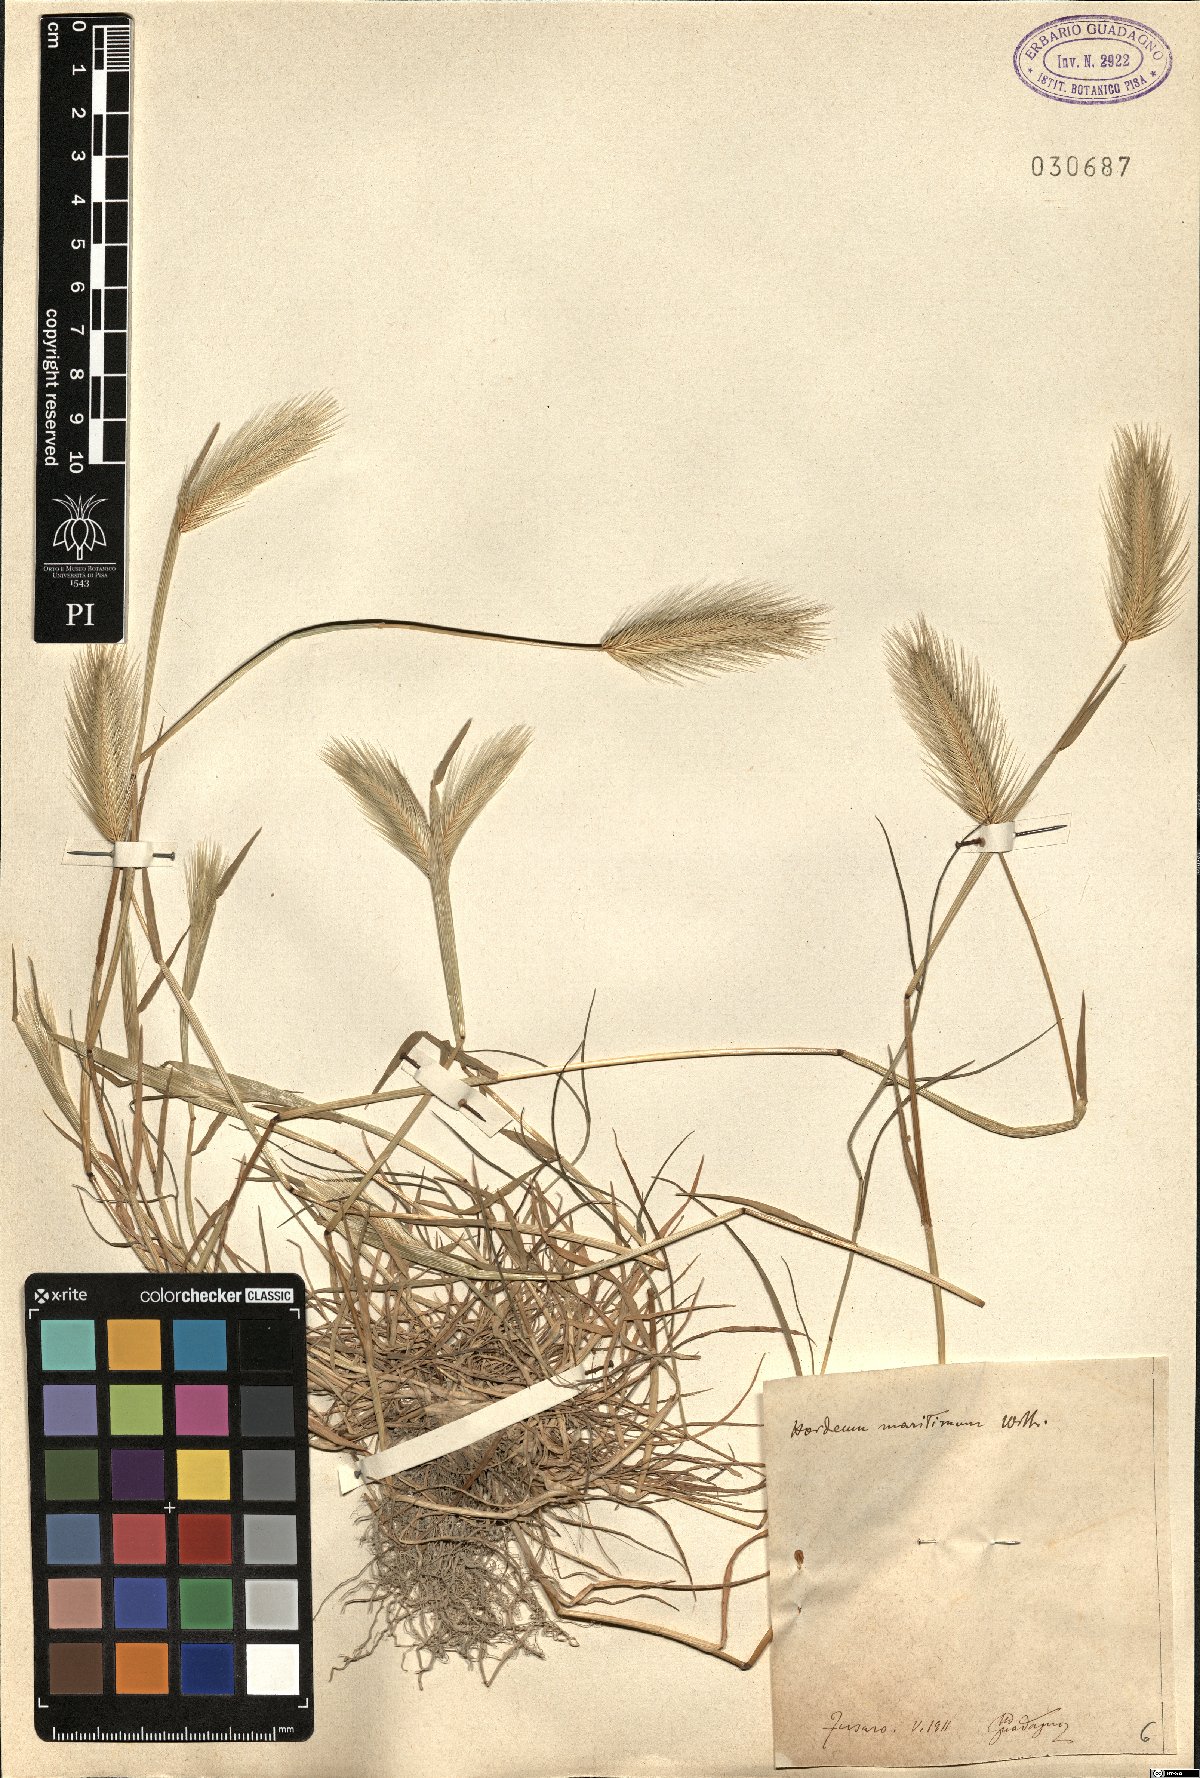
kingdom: Plantae
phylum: Tracheophyta
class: Liliopsida
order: Poales
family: Poaceae
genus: Hordeum
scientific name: Hordeum marinum
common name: Sea barley
